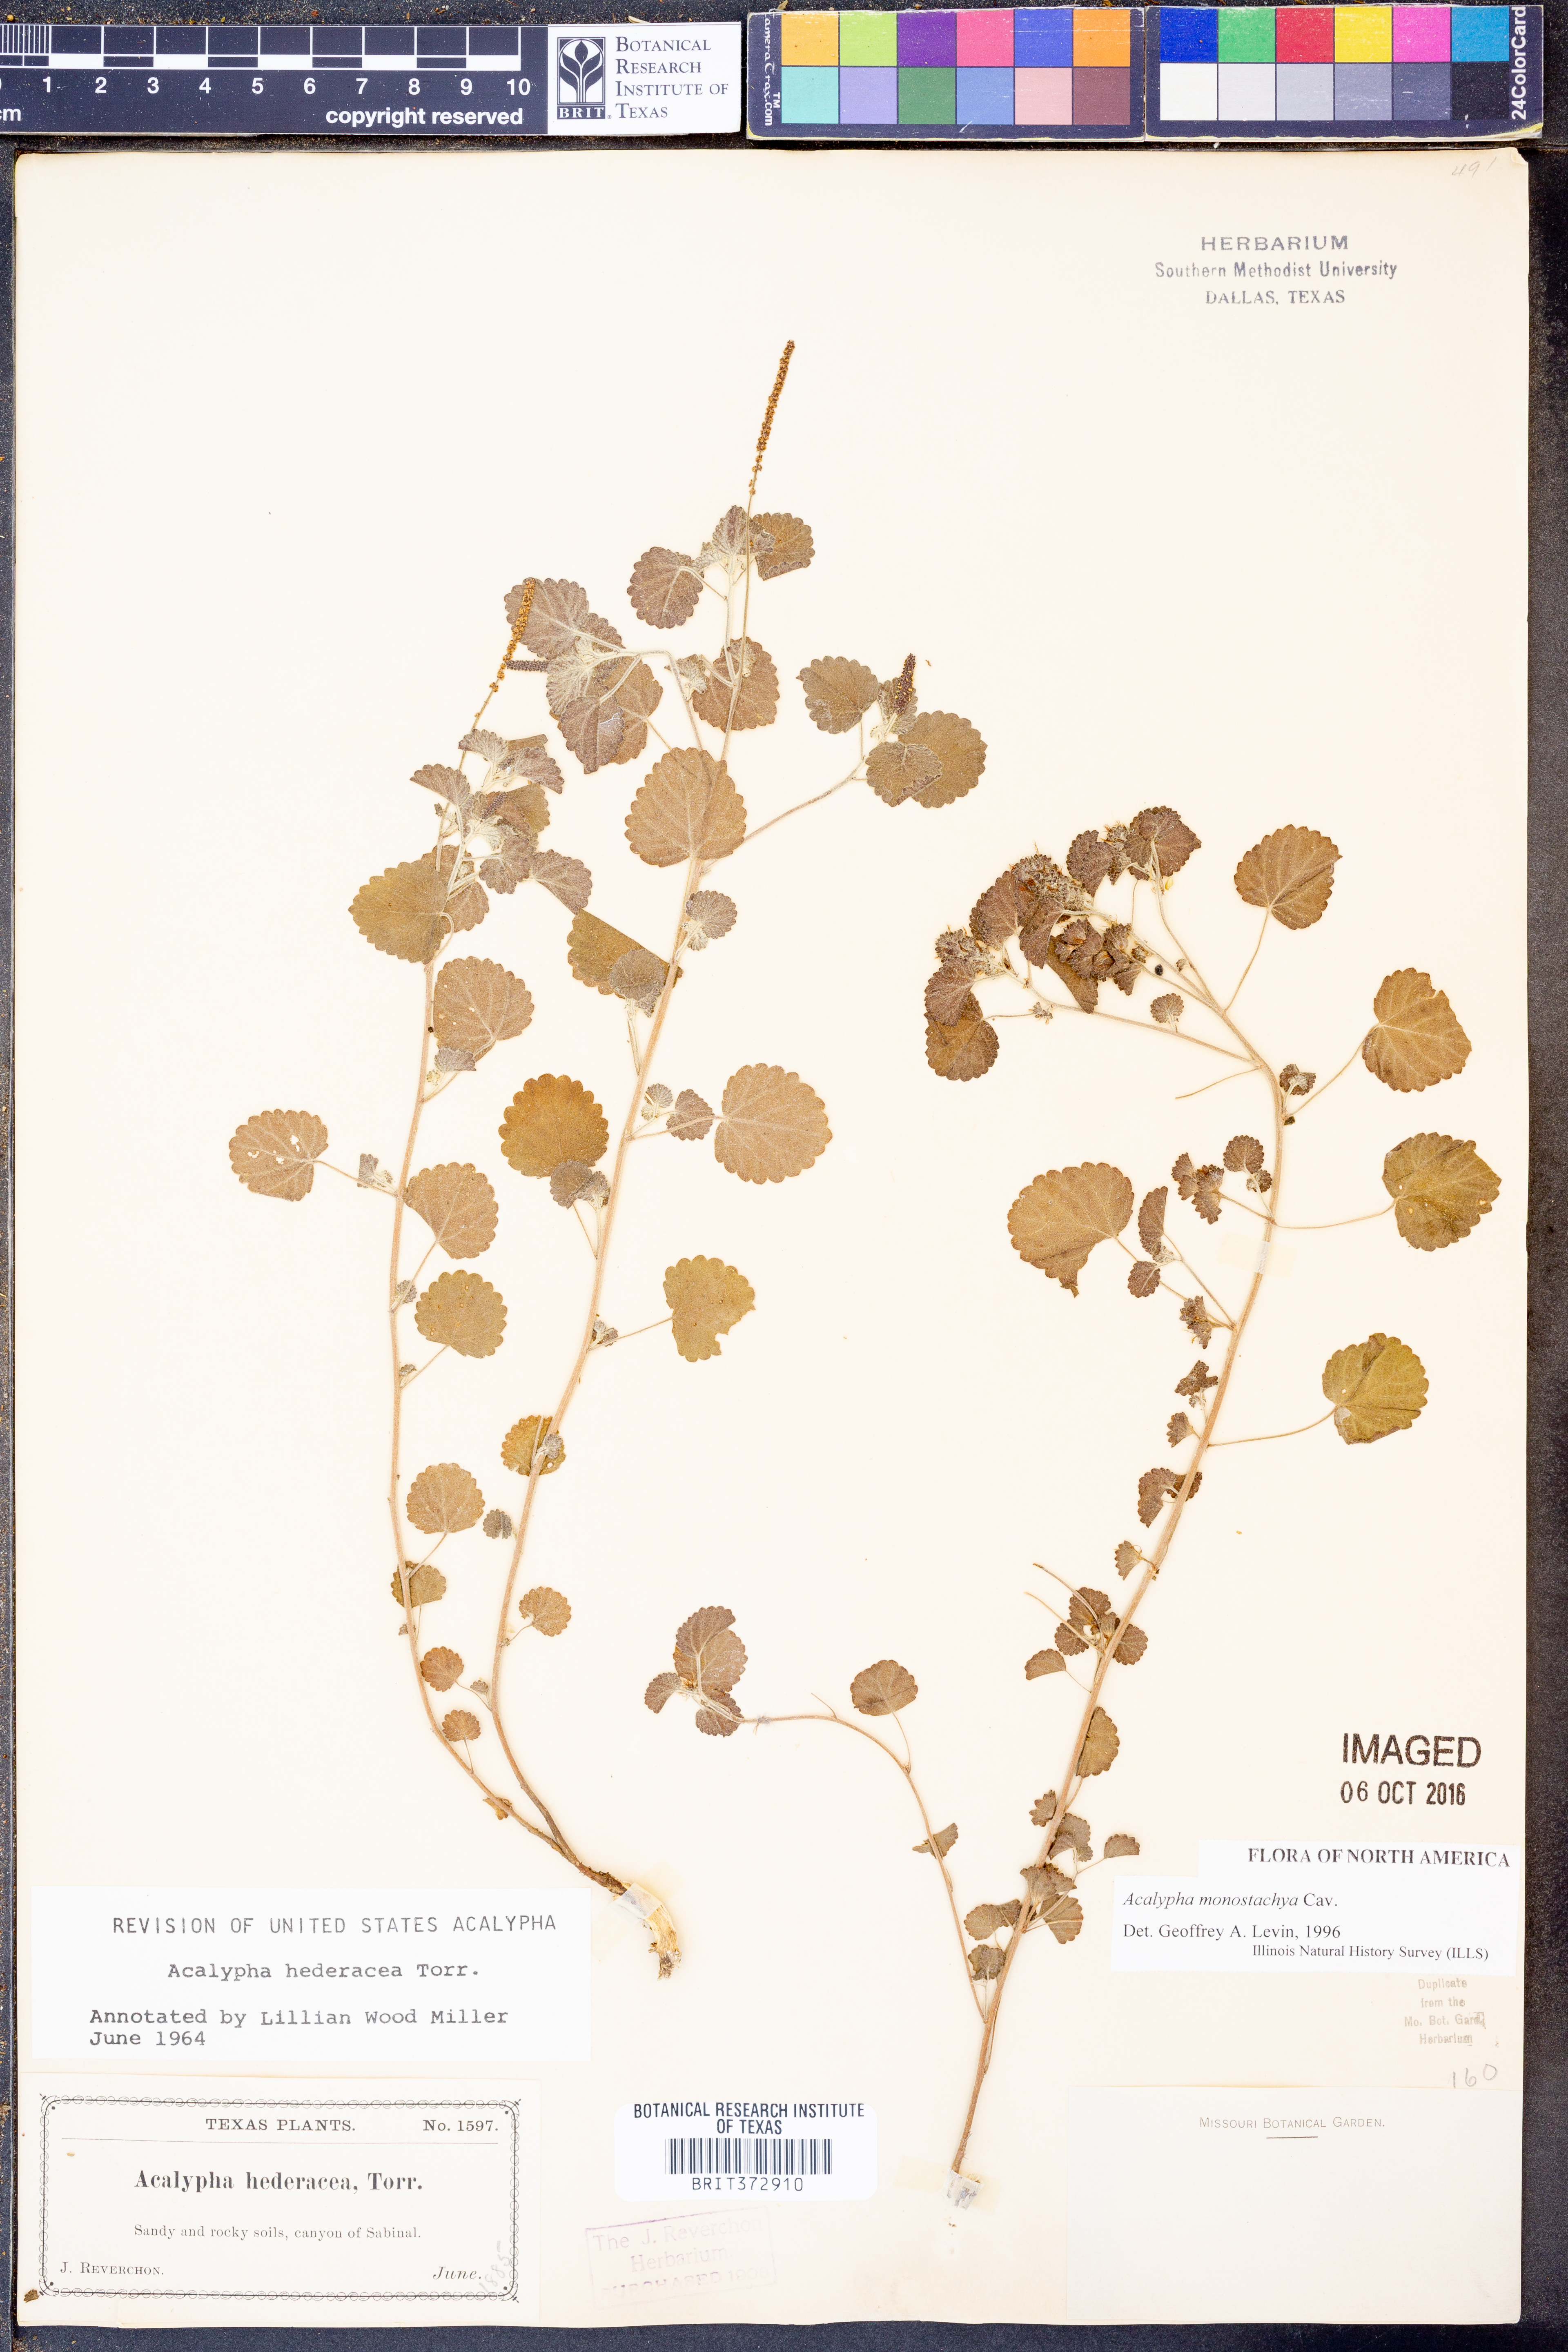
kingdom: Plantae
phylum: Tracheophyta
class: Magnoliopsida
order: Malpighiales
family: Euphorbiaceae
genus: Acalypha
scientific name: Acalypha monostachya
